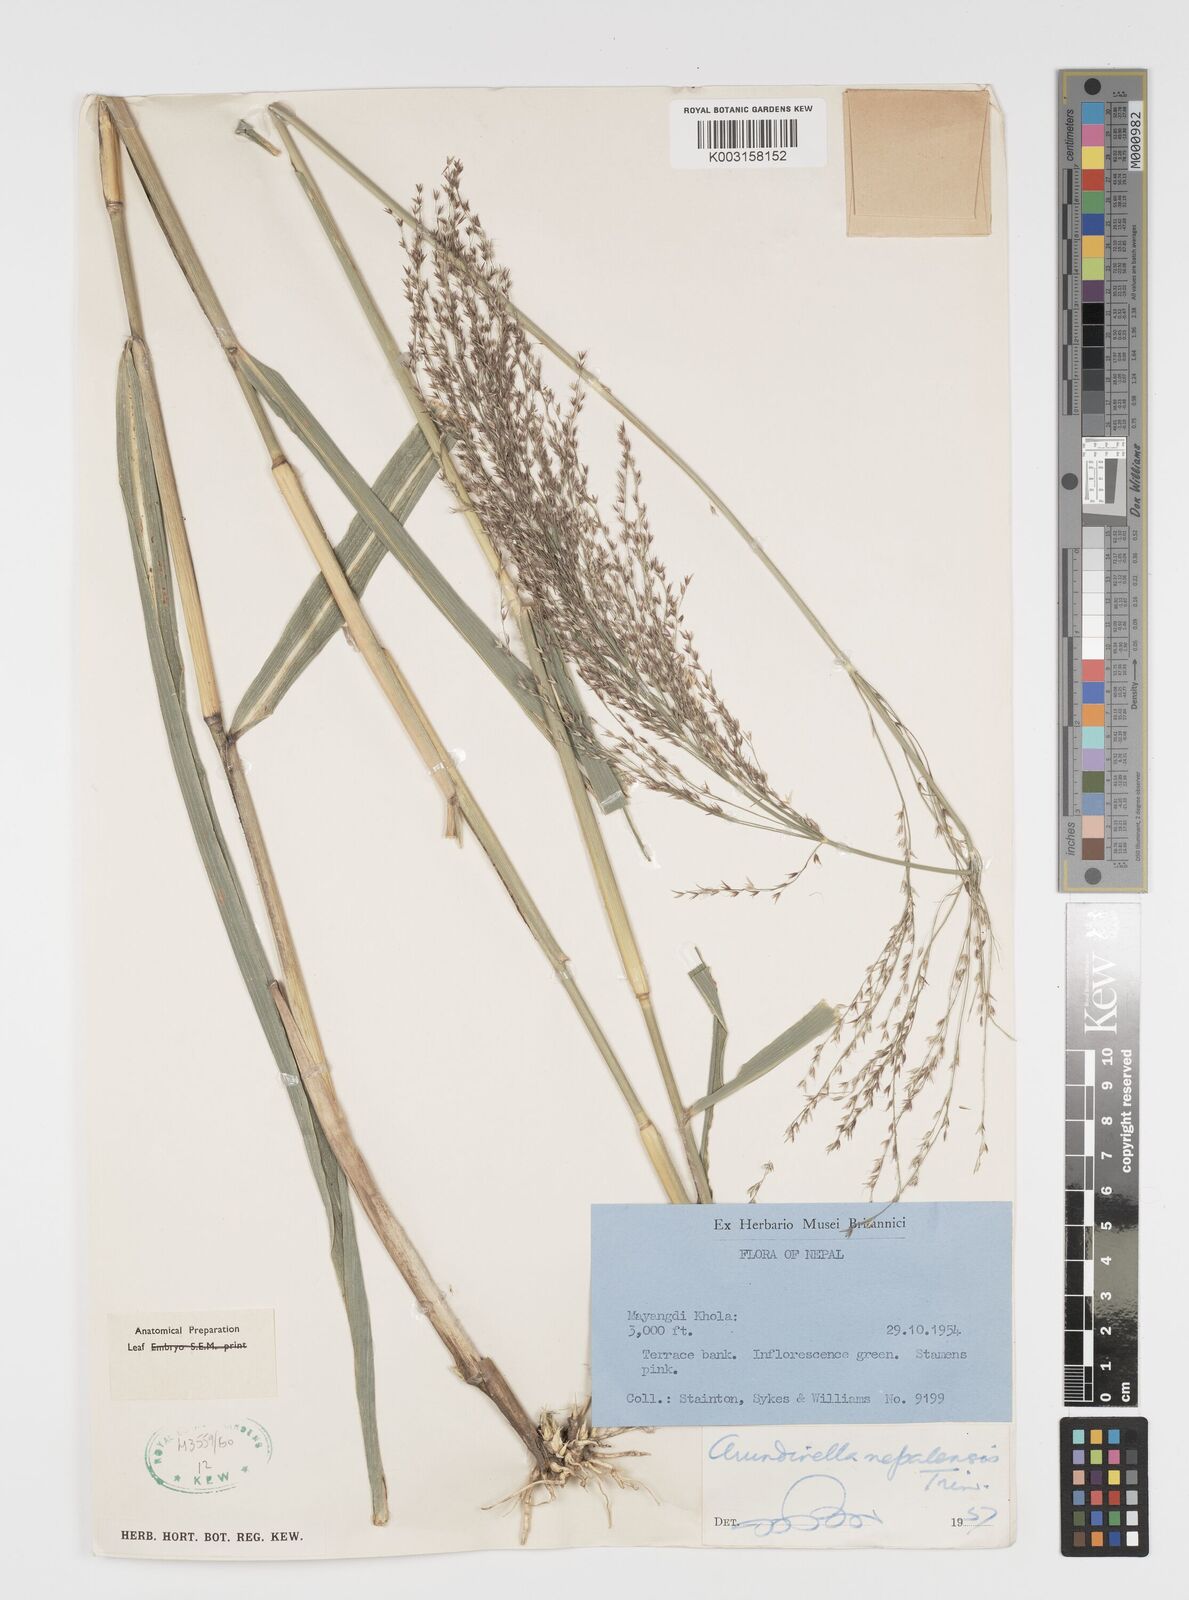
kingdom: Plantae
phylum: Tracheophyta
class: Liliopsida
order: Poales
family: Poaceae
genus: Arundinella
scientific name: Arundinella nepalensis
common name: Reed grass
